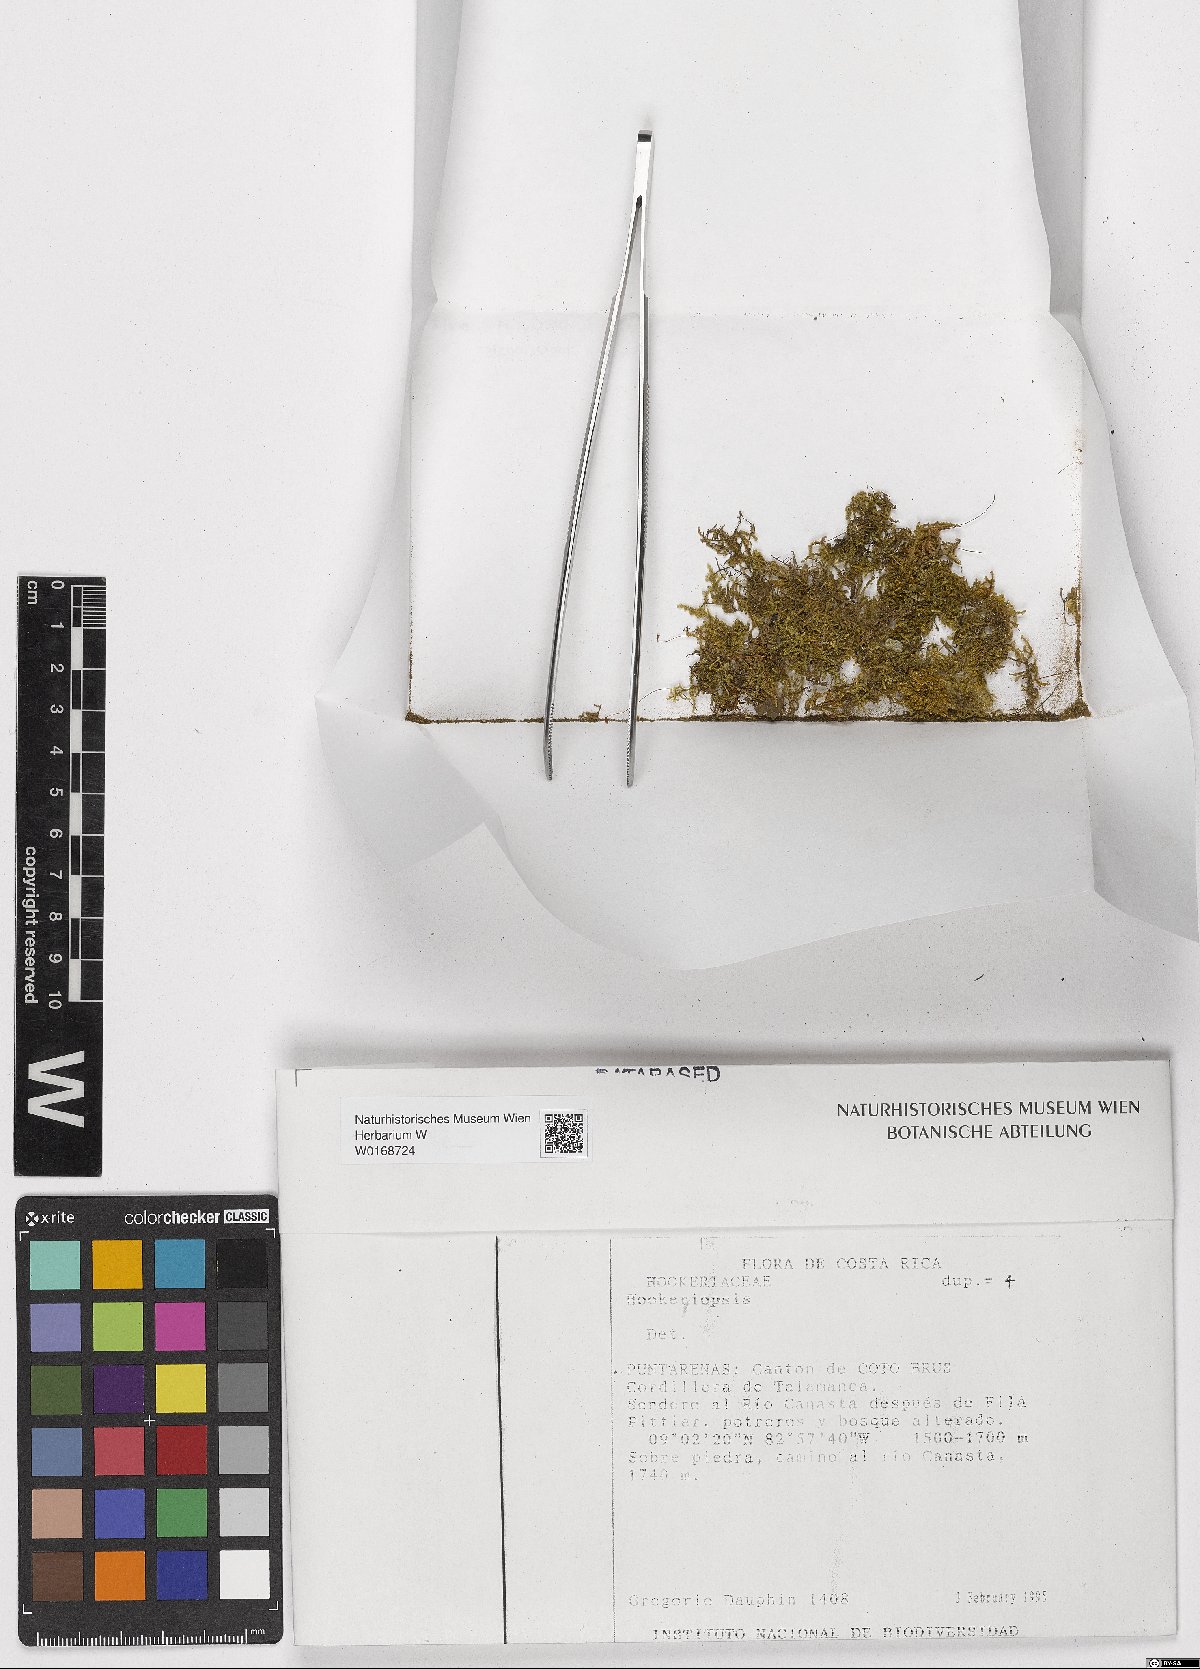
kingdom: Plantae
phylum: Bryophyta
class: Bryopsida
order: Hookeriales
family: Pilotrichaceae
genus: Hookeriopsis
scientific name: Hookeriopsis
